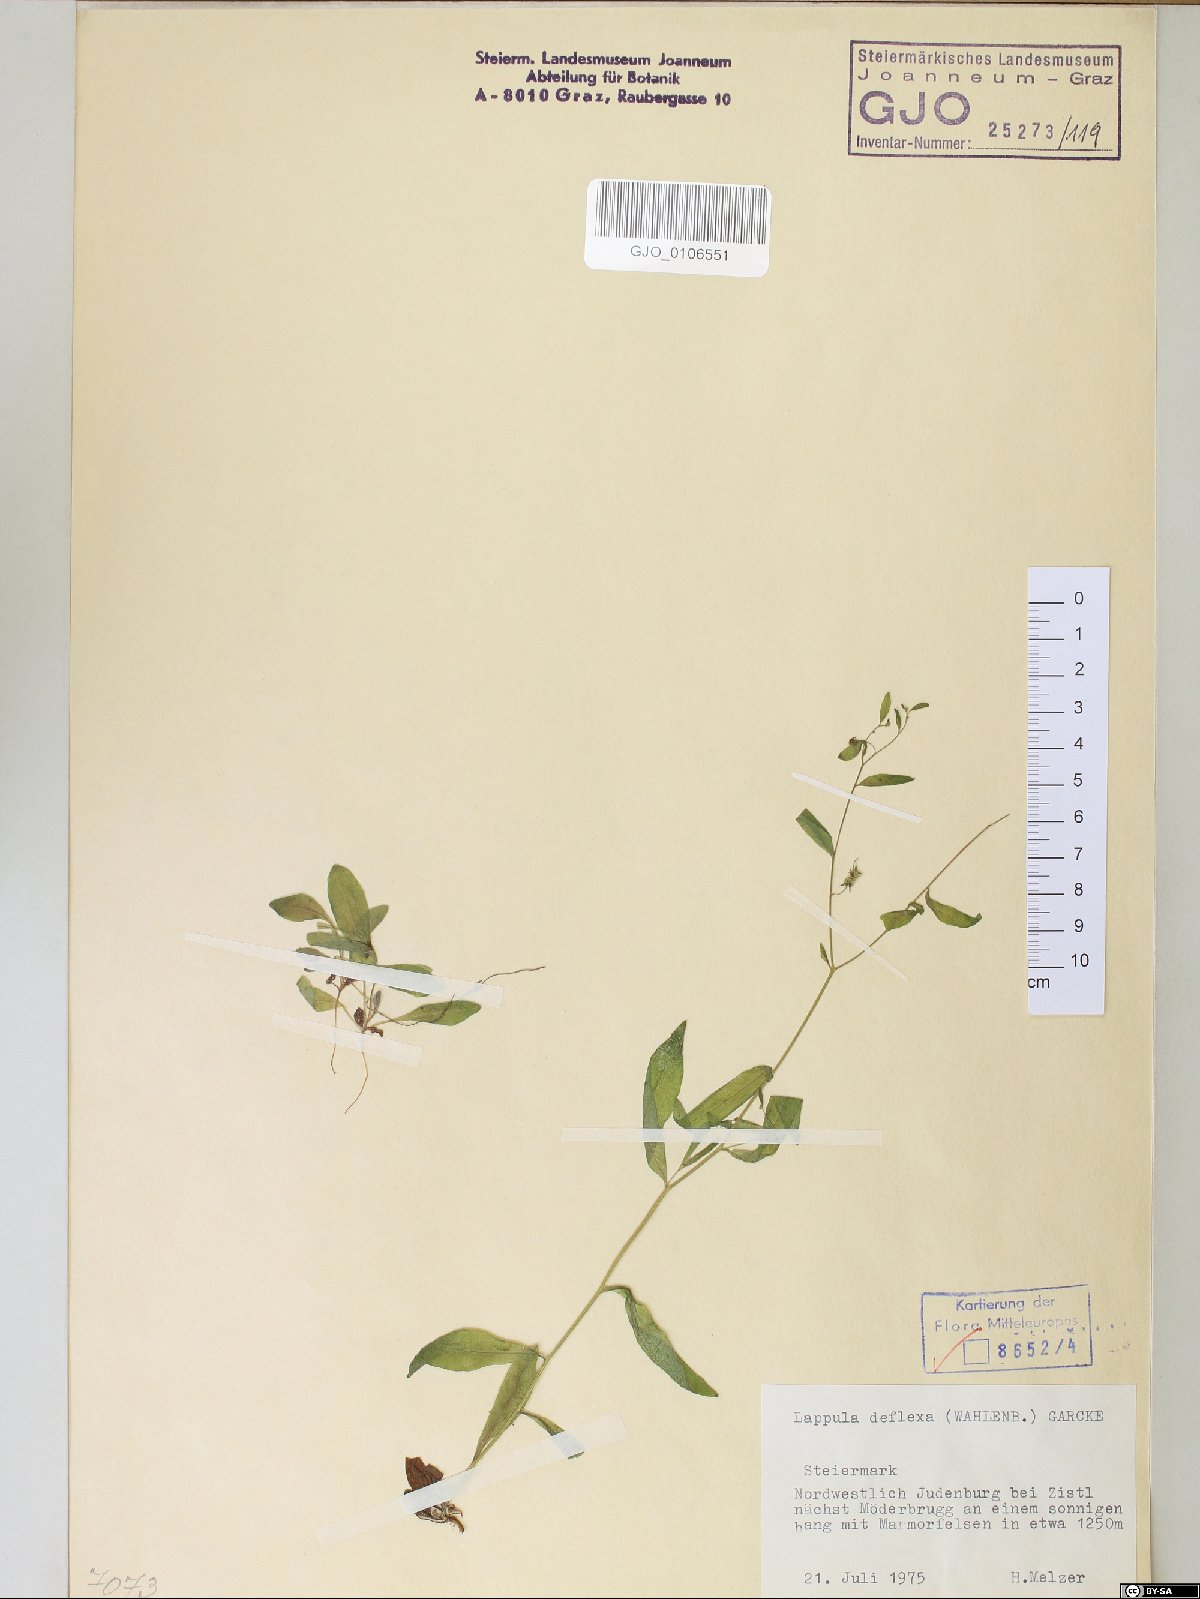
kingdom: Plantae
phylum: Tracheophyta
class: Magnoliopsida
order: Boraginales
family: Boraginaceae
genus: Hackelia
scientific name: Hackelia deflexa
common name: Nodding stickseed
